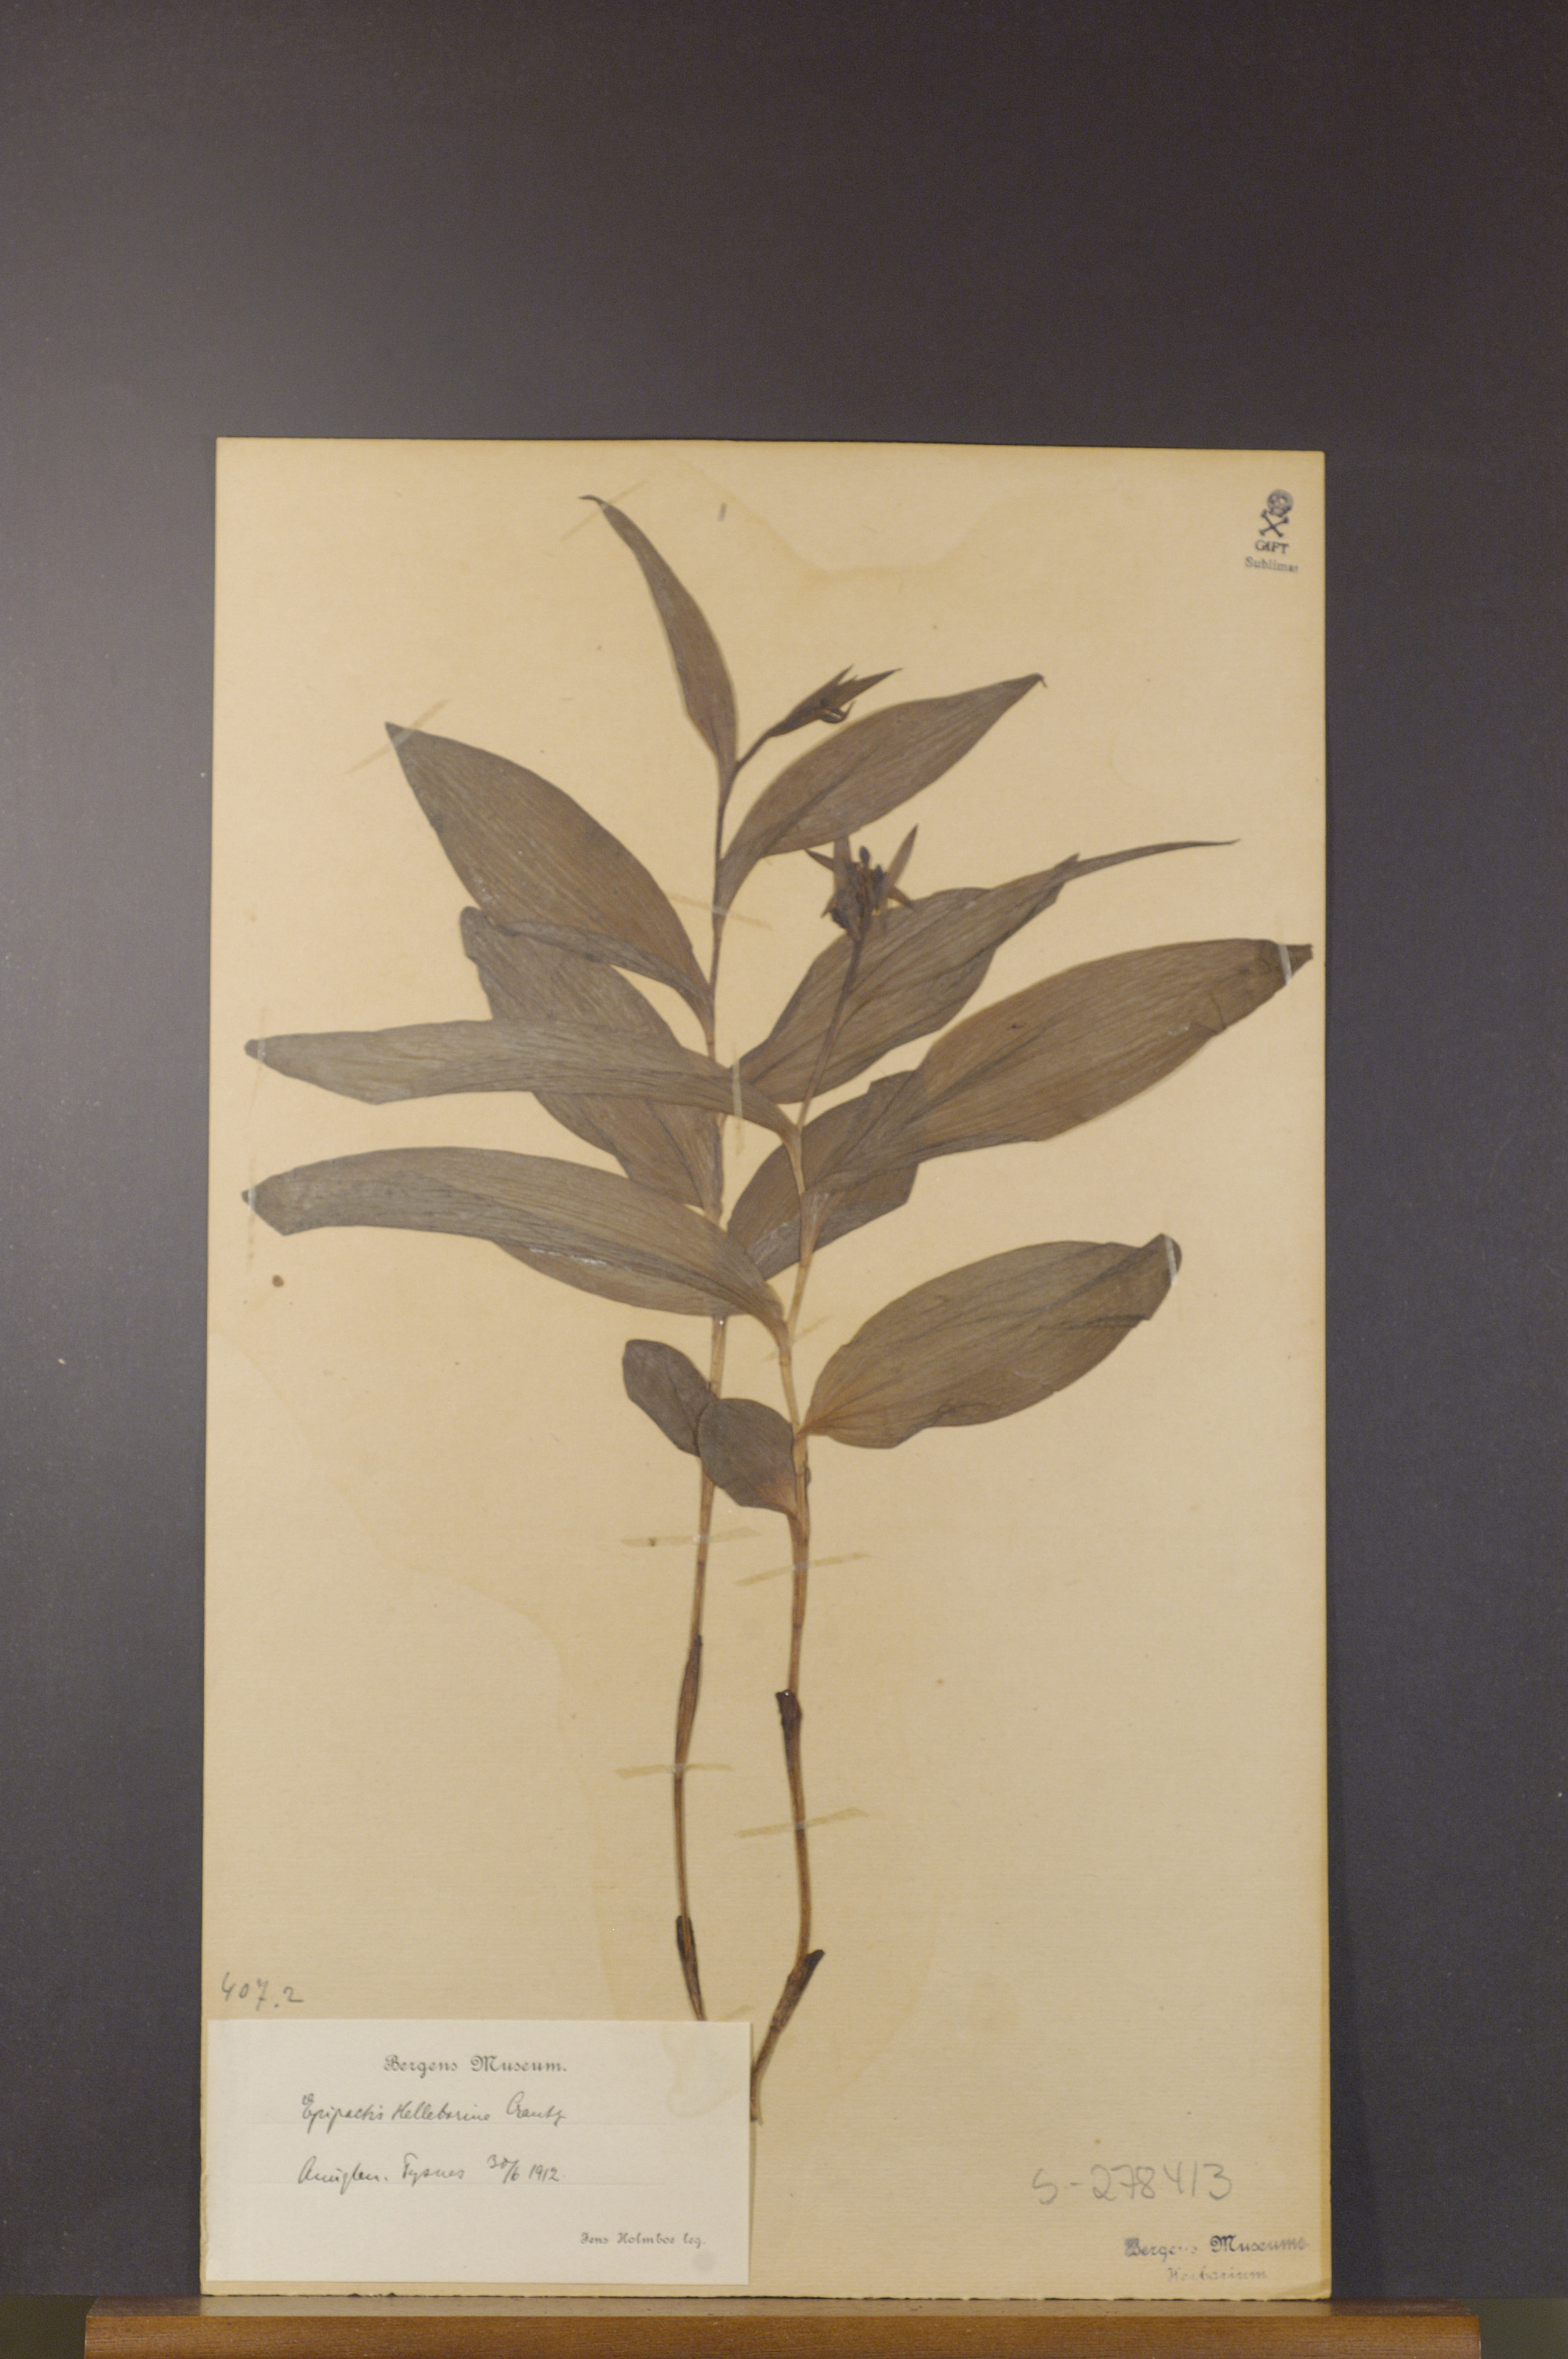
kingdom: Plantae
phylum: Tracheophyta
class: Liliopsida
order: Asparagales
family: Orchidaceae
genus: Epipactis
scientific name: Epipactis helleborine
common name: Broad-leaved helleborine
